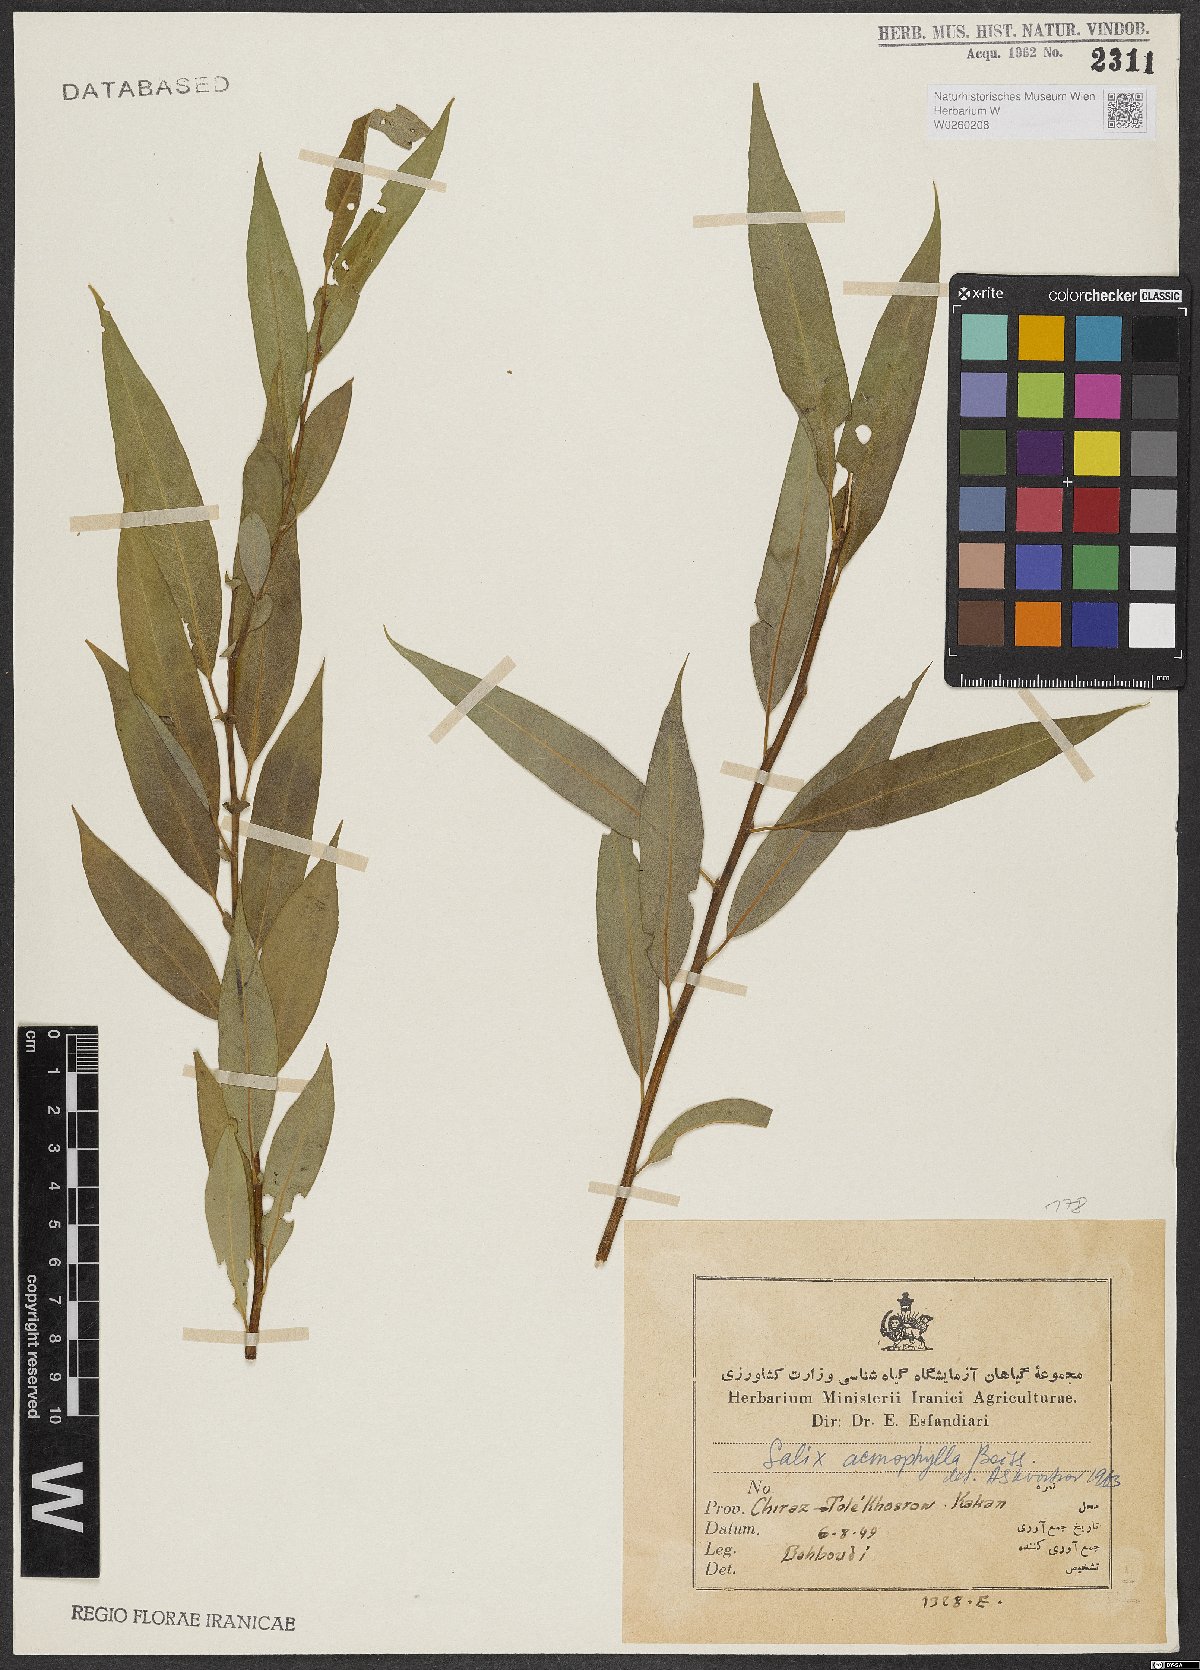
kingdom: Plantae
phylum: Tracheophyta
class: Magnoliopsida
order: Malpighiales
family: Salicaceae
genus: Salix
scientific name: Salix acmophylla
